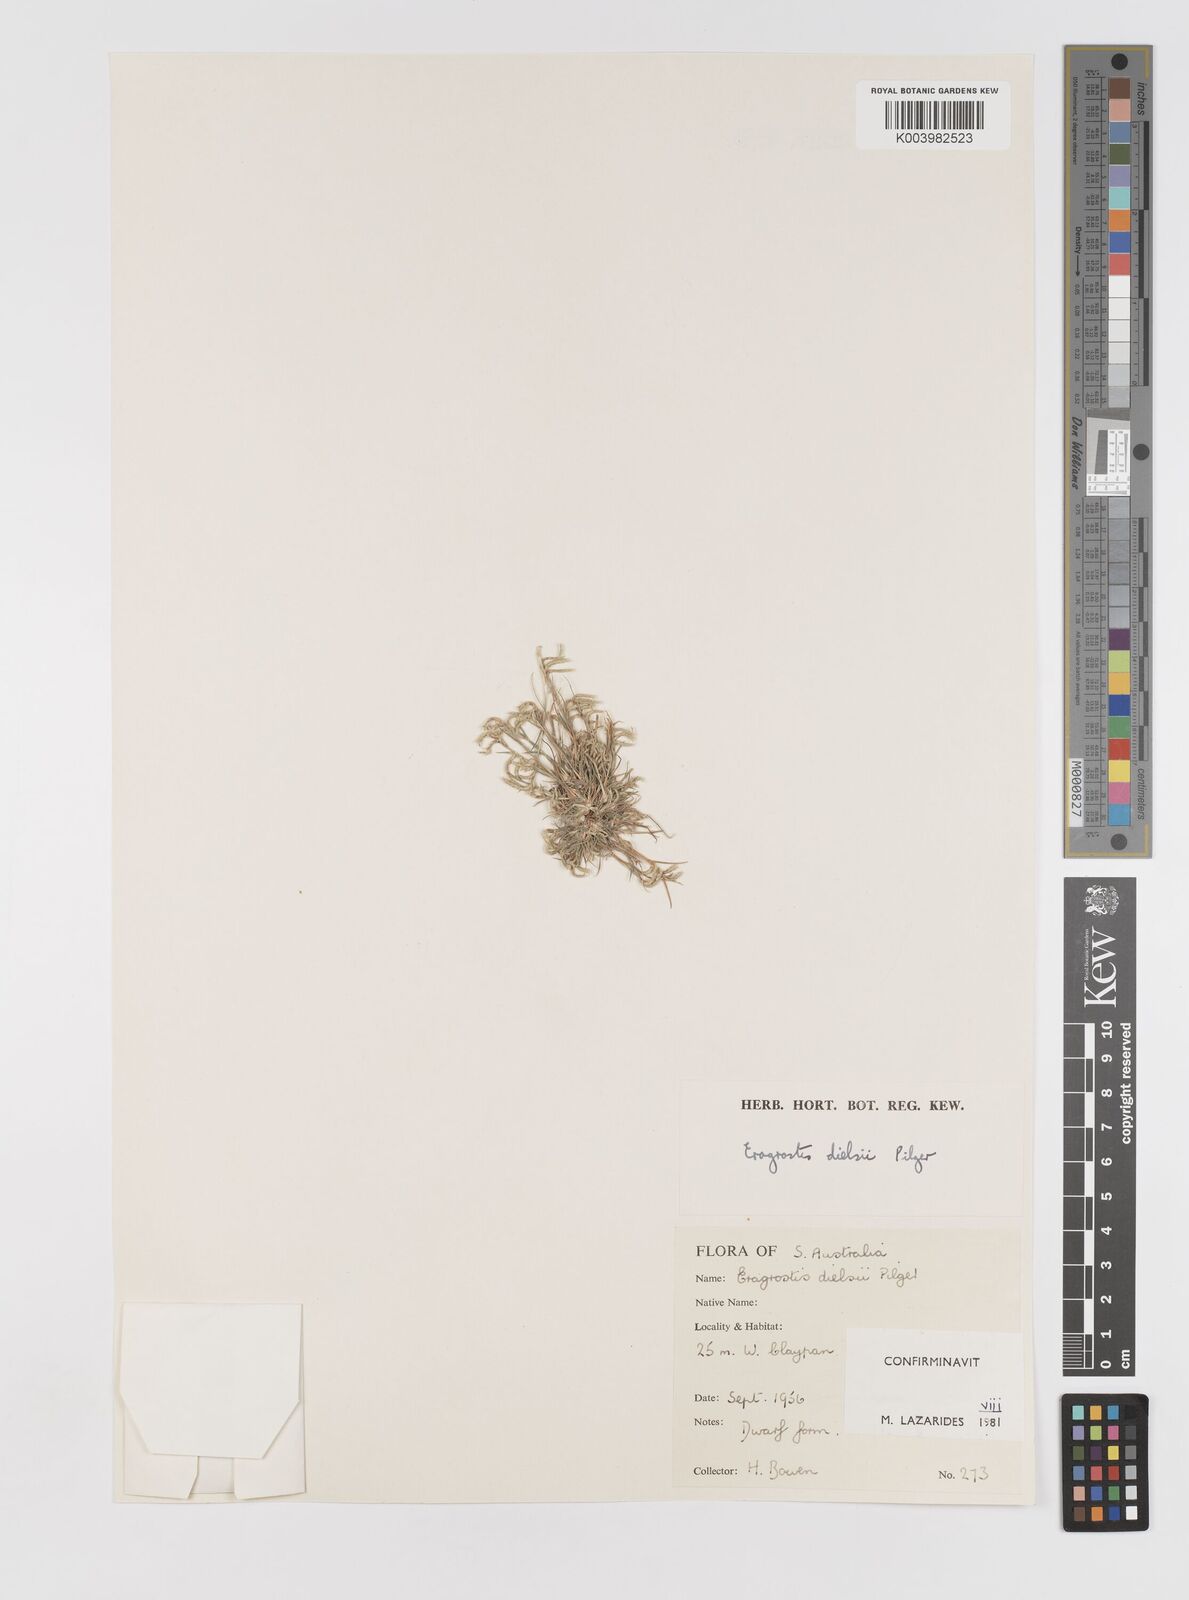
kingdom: Plantae
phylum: Tracheophyta
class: Liliopsida
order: Poales
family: Poaceae
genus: Eragrostis
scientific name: Eragrostis dielsii
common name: Lovegrass
